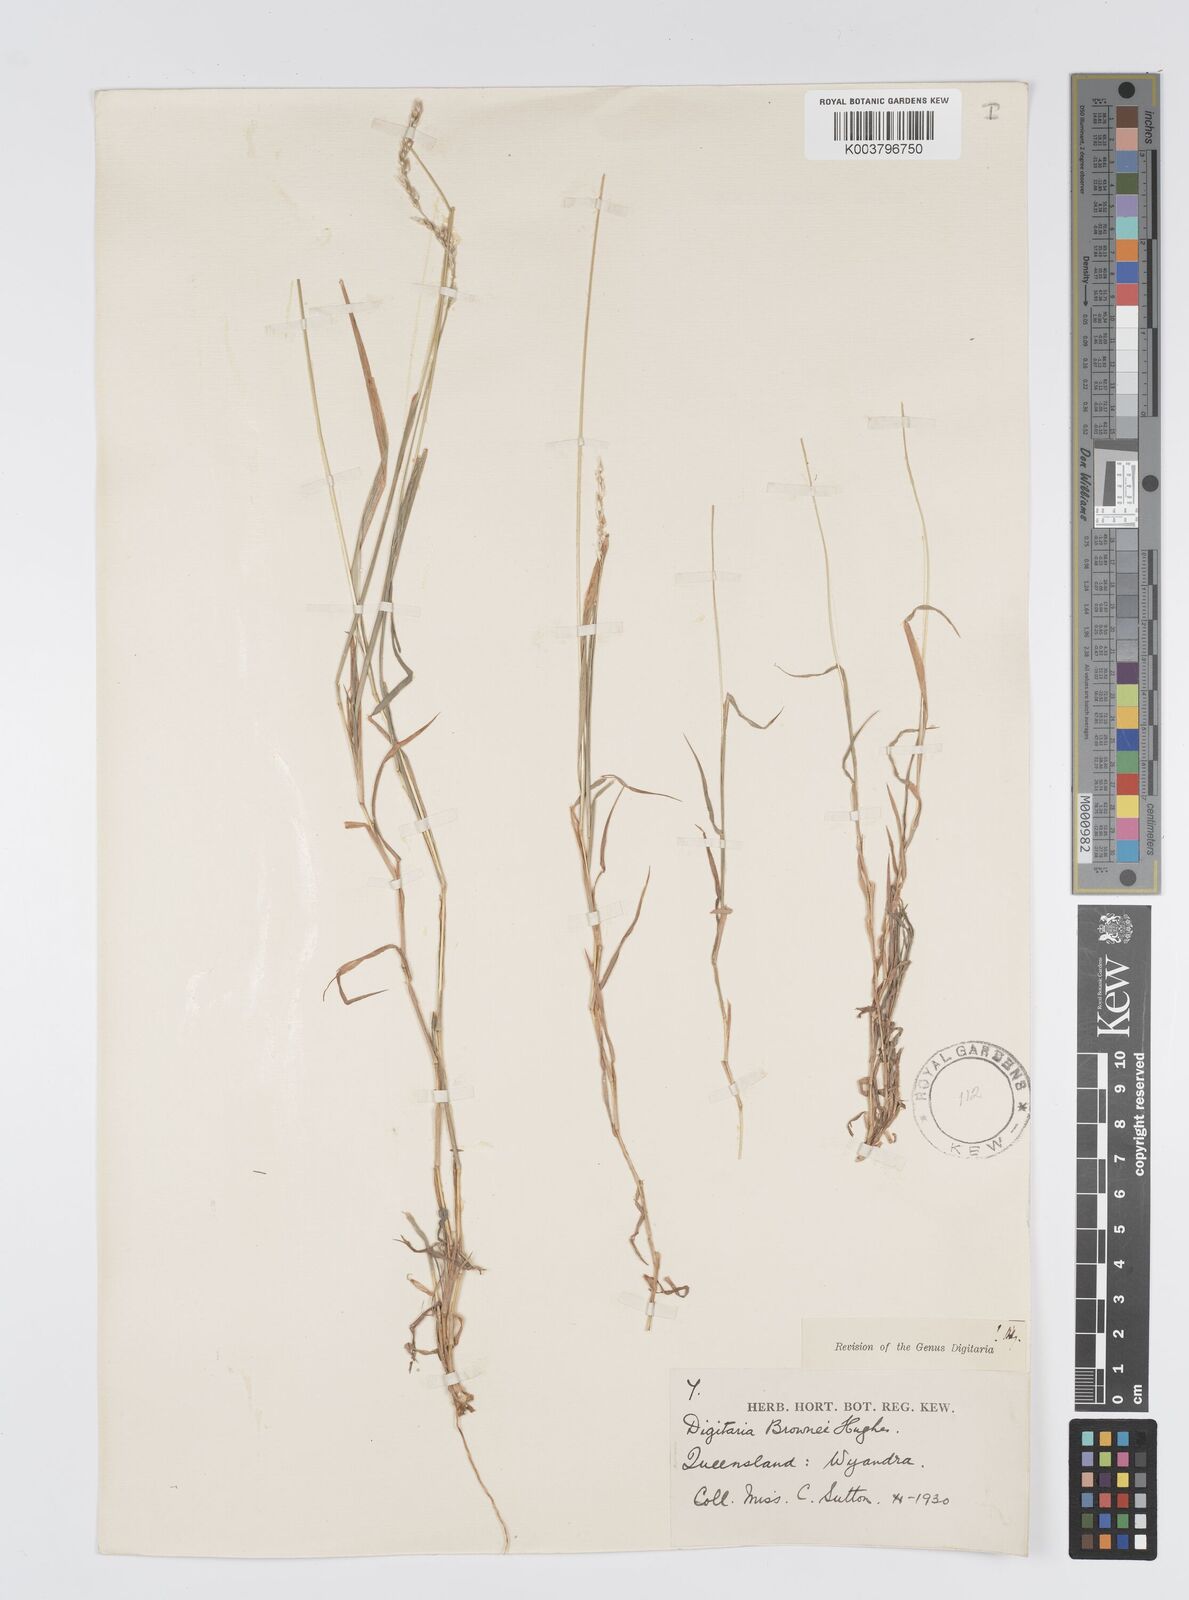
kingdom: Plantae
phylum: Tracheophyta
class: Liliopsida
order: Poales
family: Poaceae
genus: Digitaria
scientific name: Digitaria brownii
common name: Cotton grass
